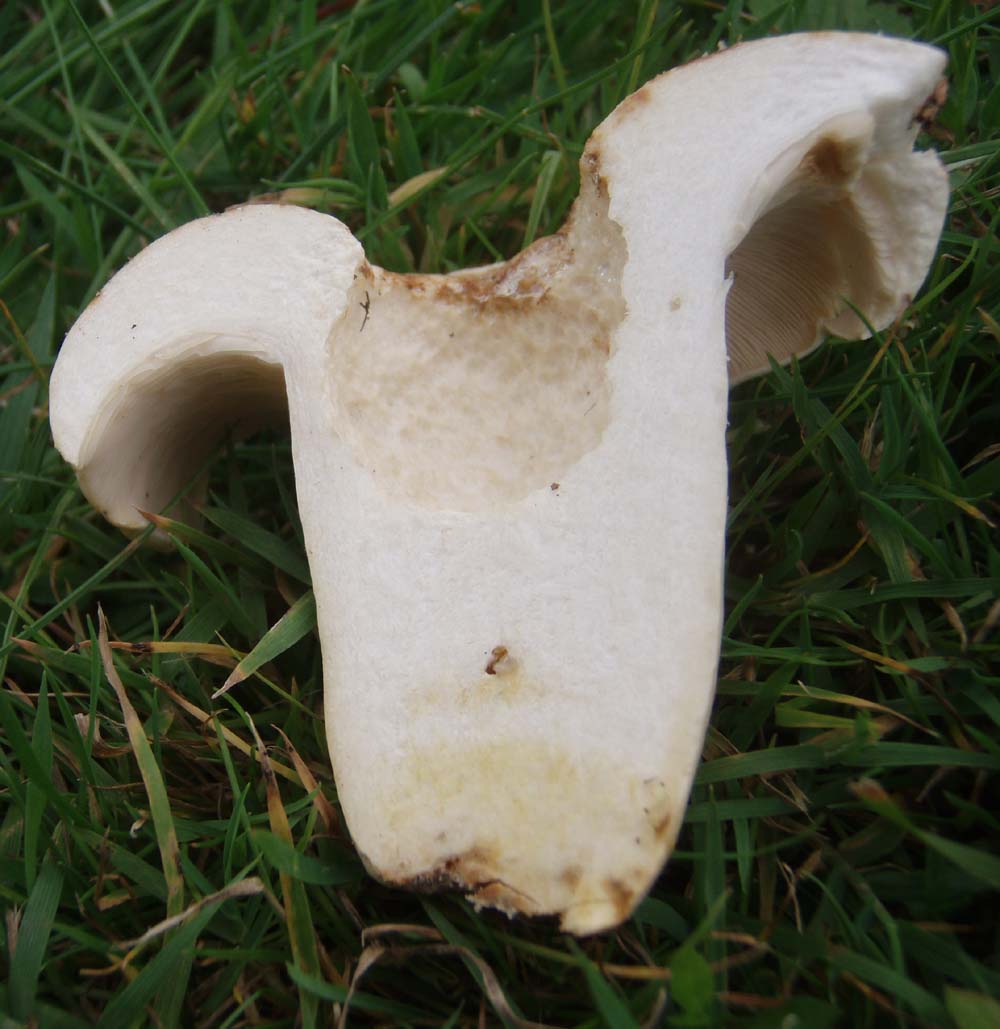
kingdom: Fungi
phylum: Basidiomycota
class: Agaricomycetes
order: Russulales
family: Russulaceae
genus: Lactifluus
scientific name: Lactifluus piperatus
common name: peber-mælkehat
